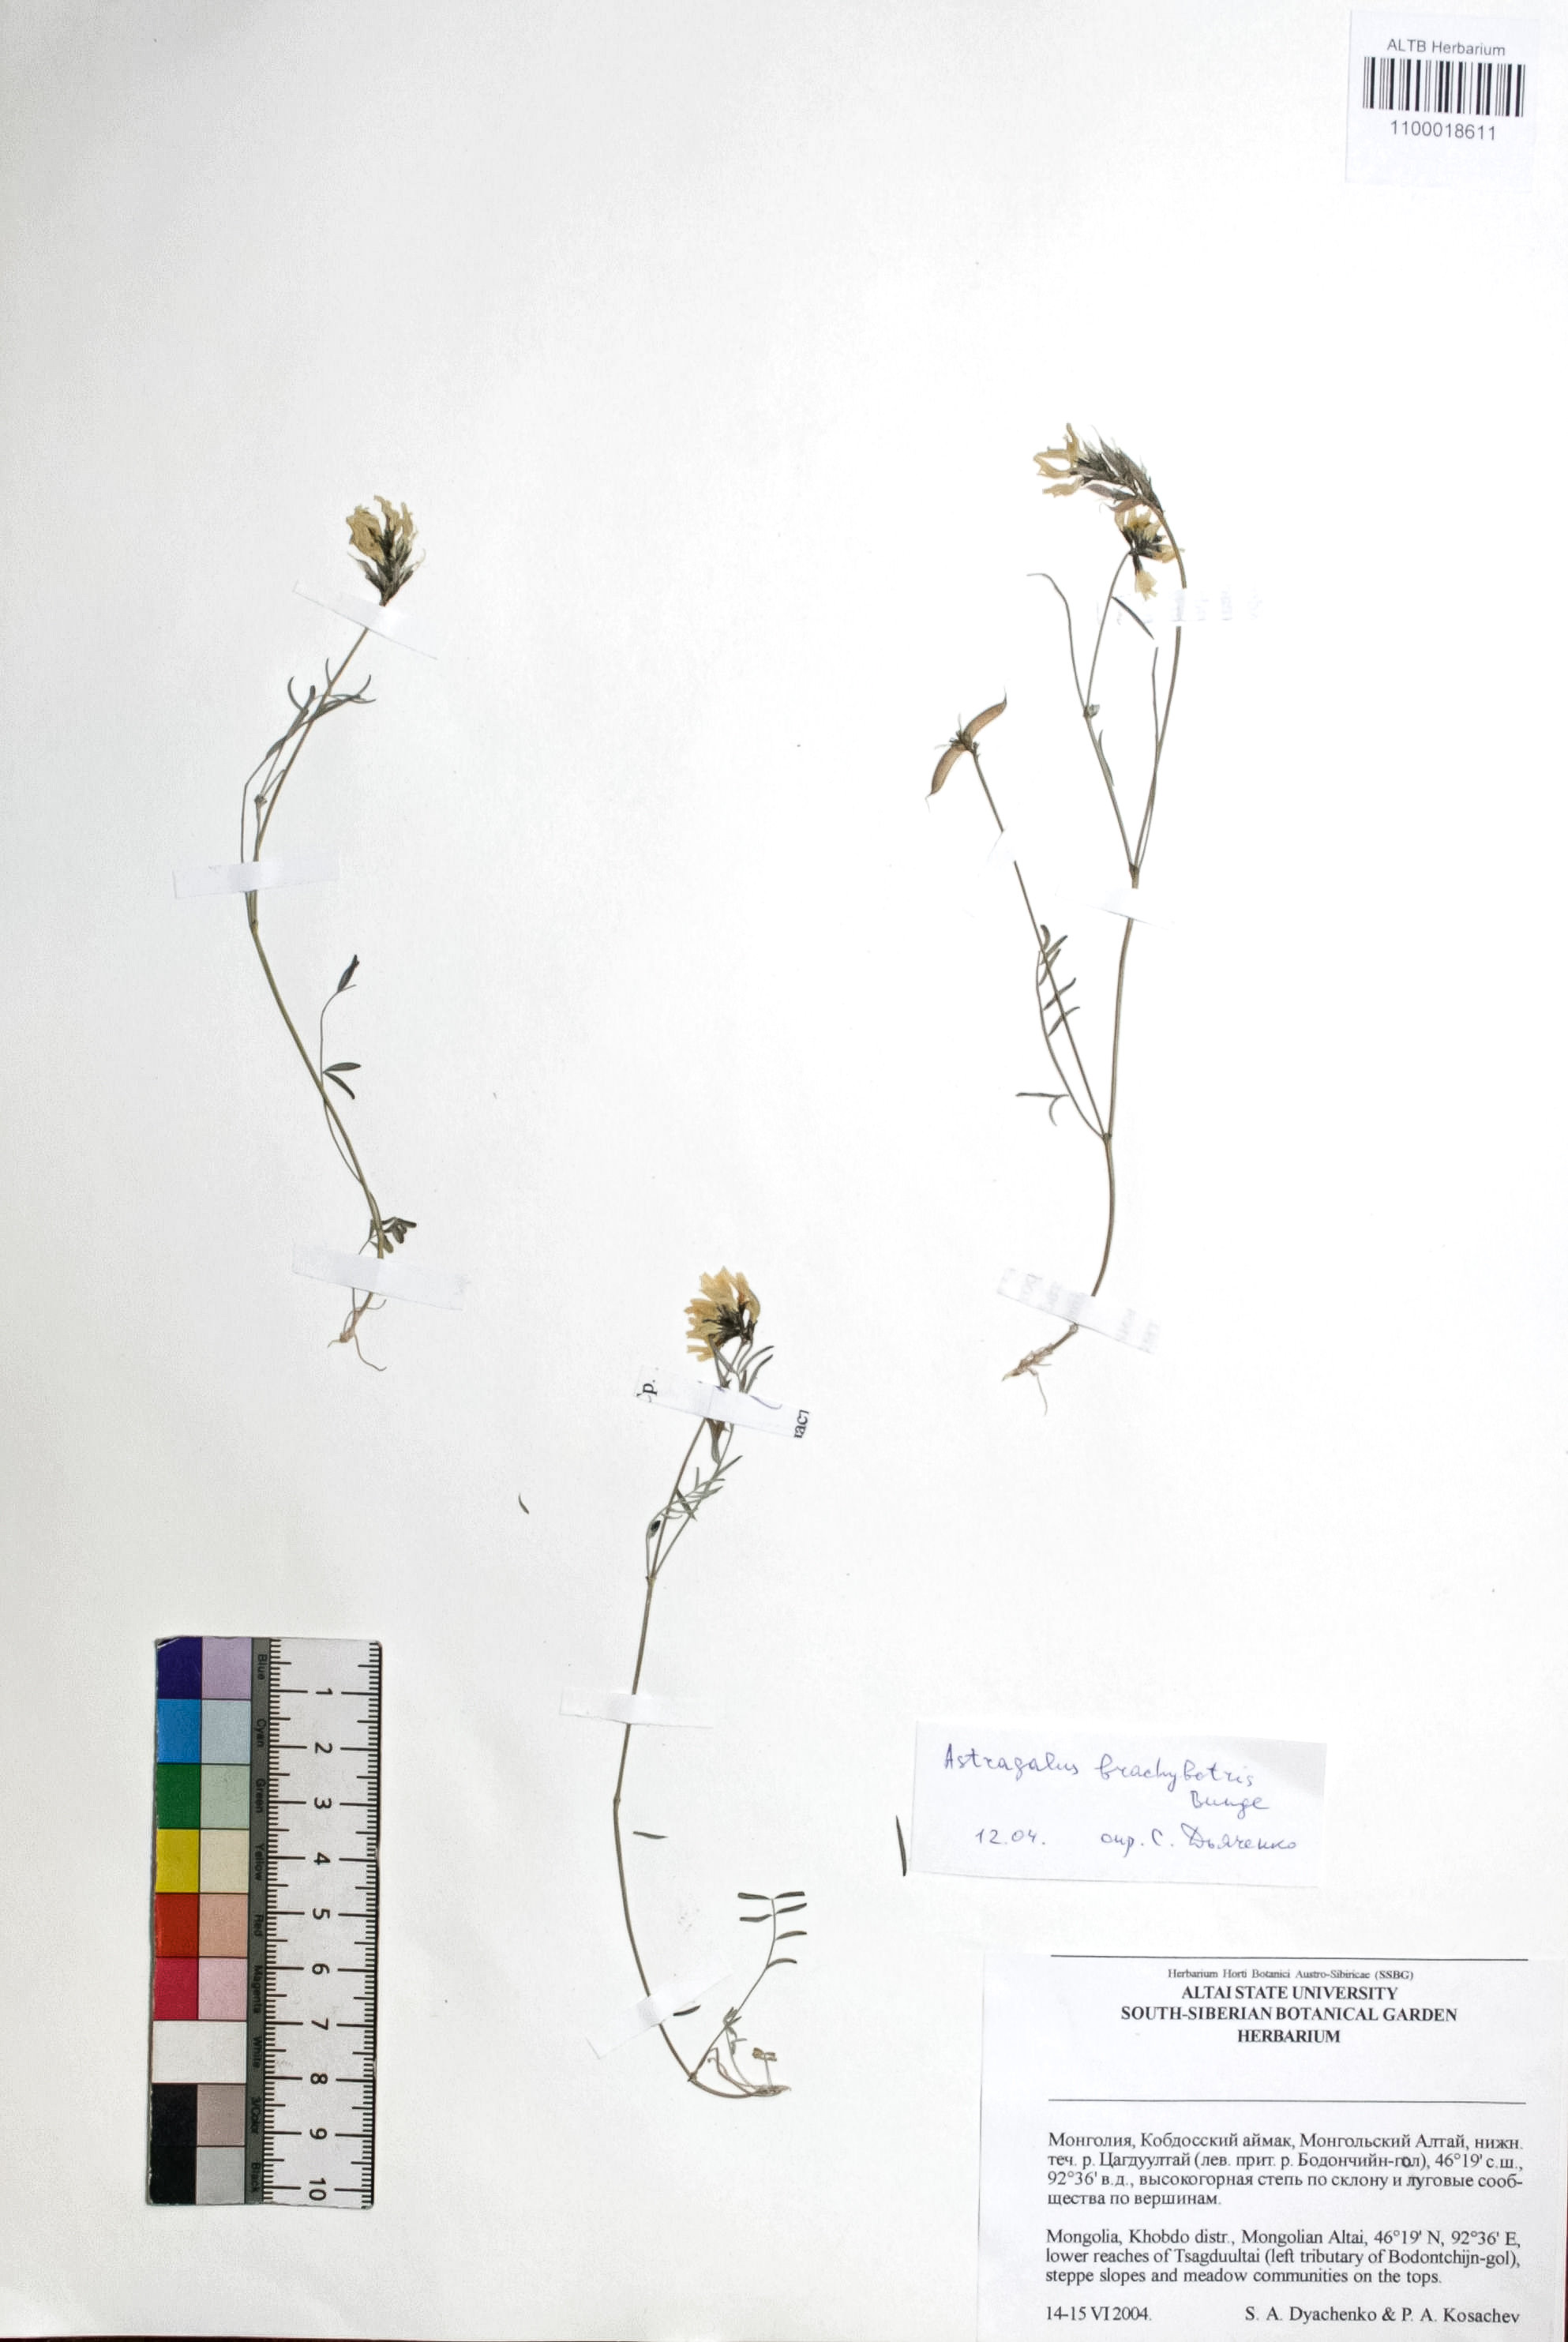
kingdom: Plantae
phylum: Tracheophyta
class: Magnoliopsida
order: Fabales
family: Fabaceae
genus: Astragalus
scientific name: Astragalus brachybotrys
